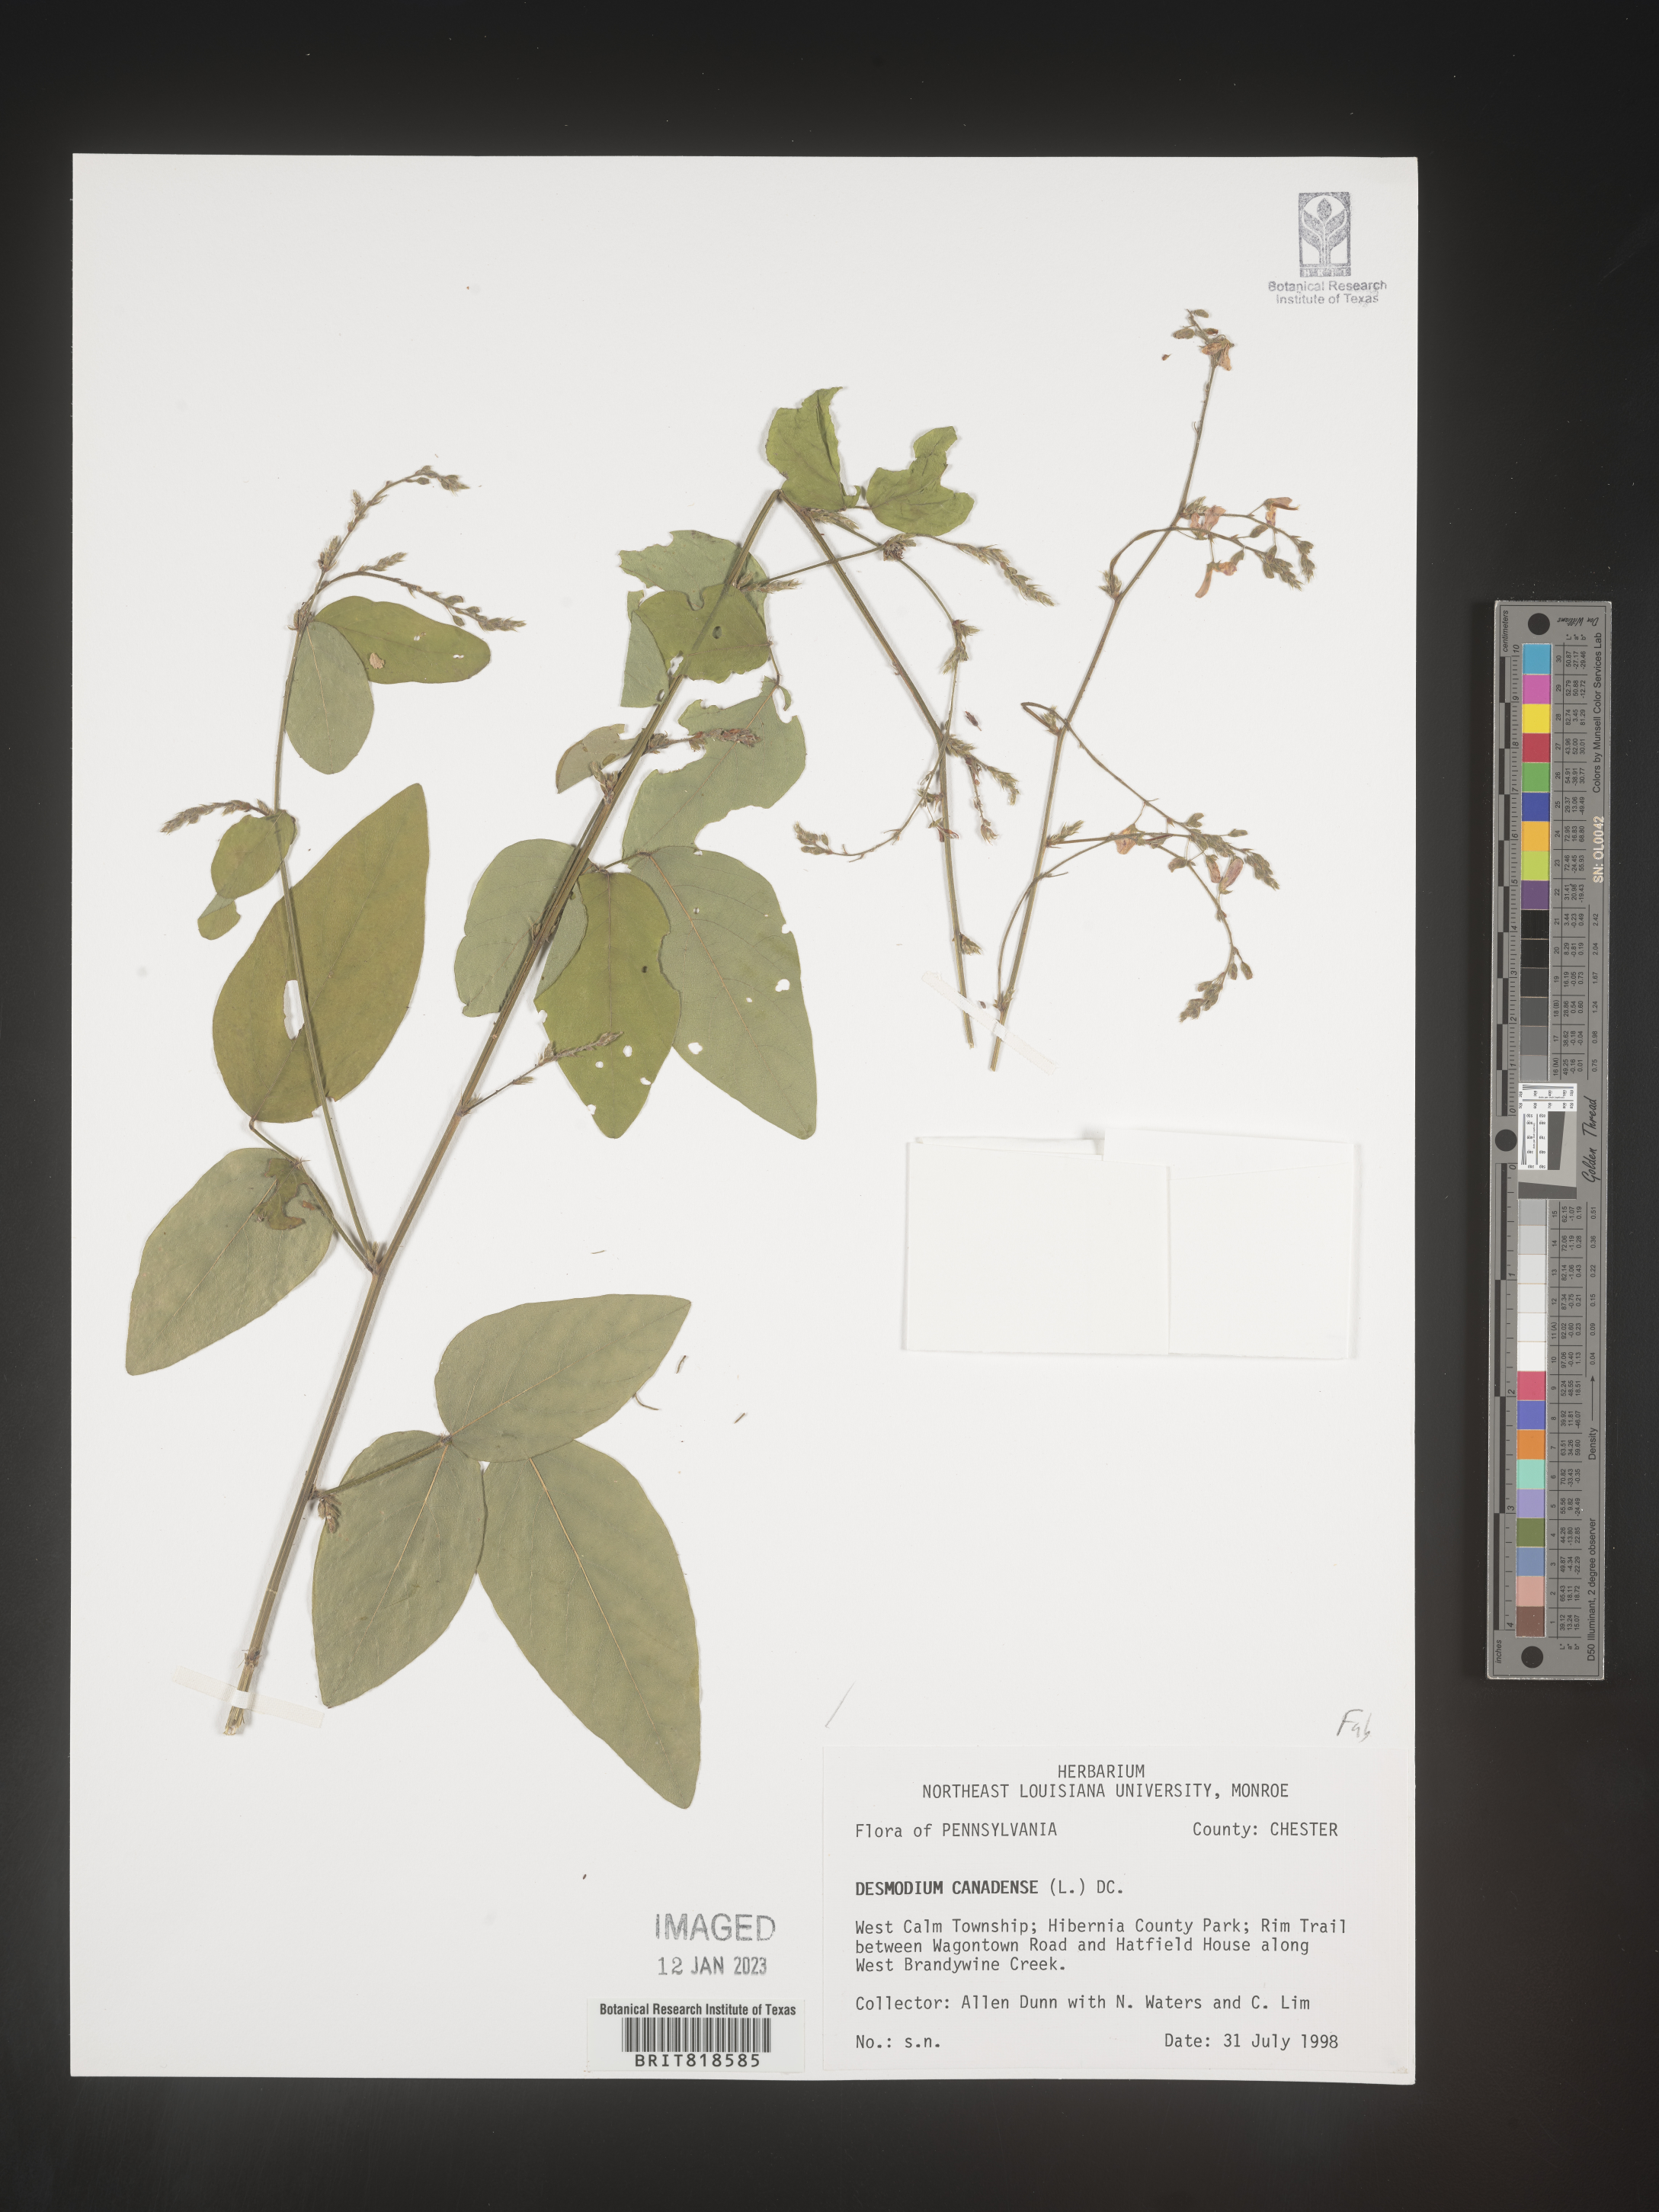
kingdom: Plantae
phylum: Tracheophyta
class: Magnoliopsida
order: Fabales
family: Fabaceae
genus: Desmodium
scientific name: Desmodium canescens
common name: Hoary tick-clover
